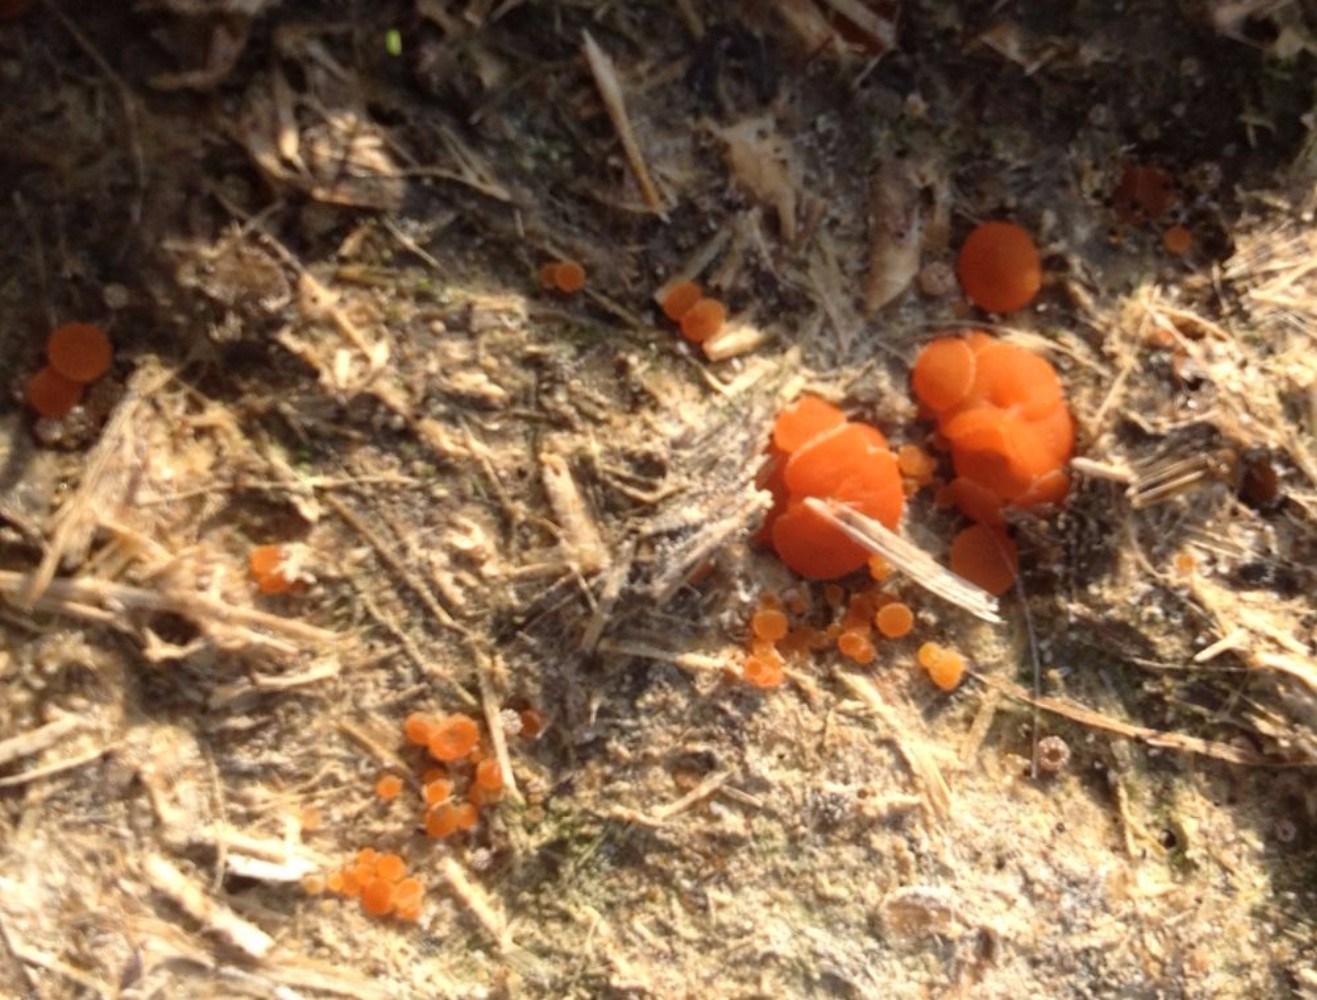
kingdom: Fungi
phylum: Ascomycota
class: Pezizomycetes
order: Pezizales
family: Pyronemataceae
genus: Cheilymenia
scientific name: Cheilymenia granulata
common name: møgbæger
